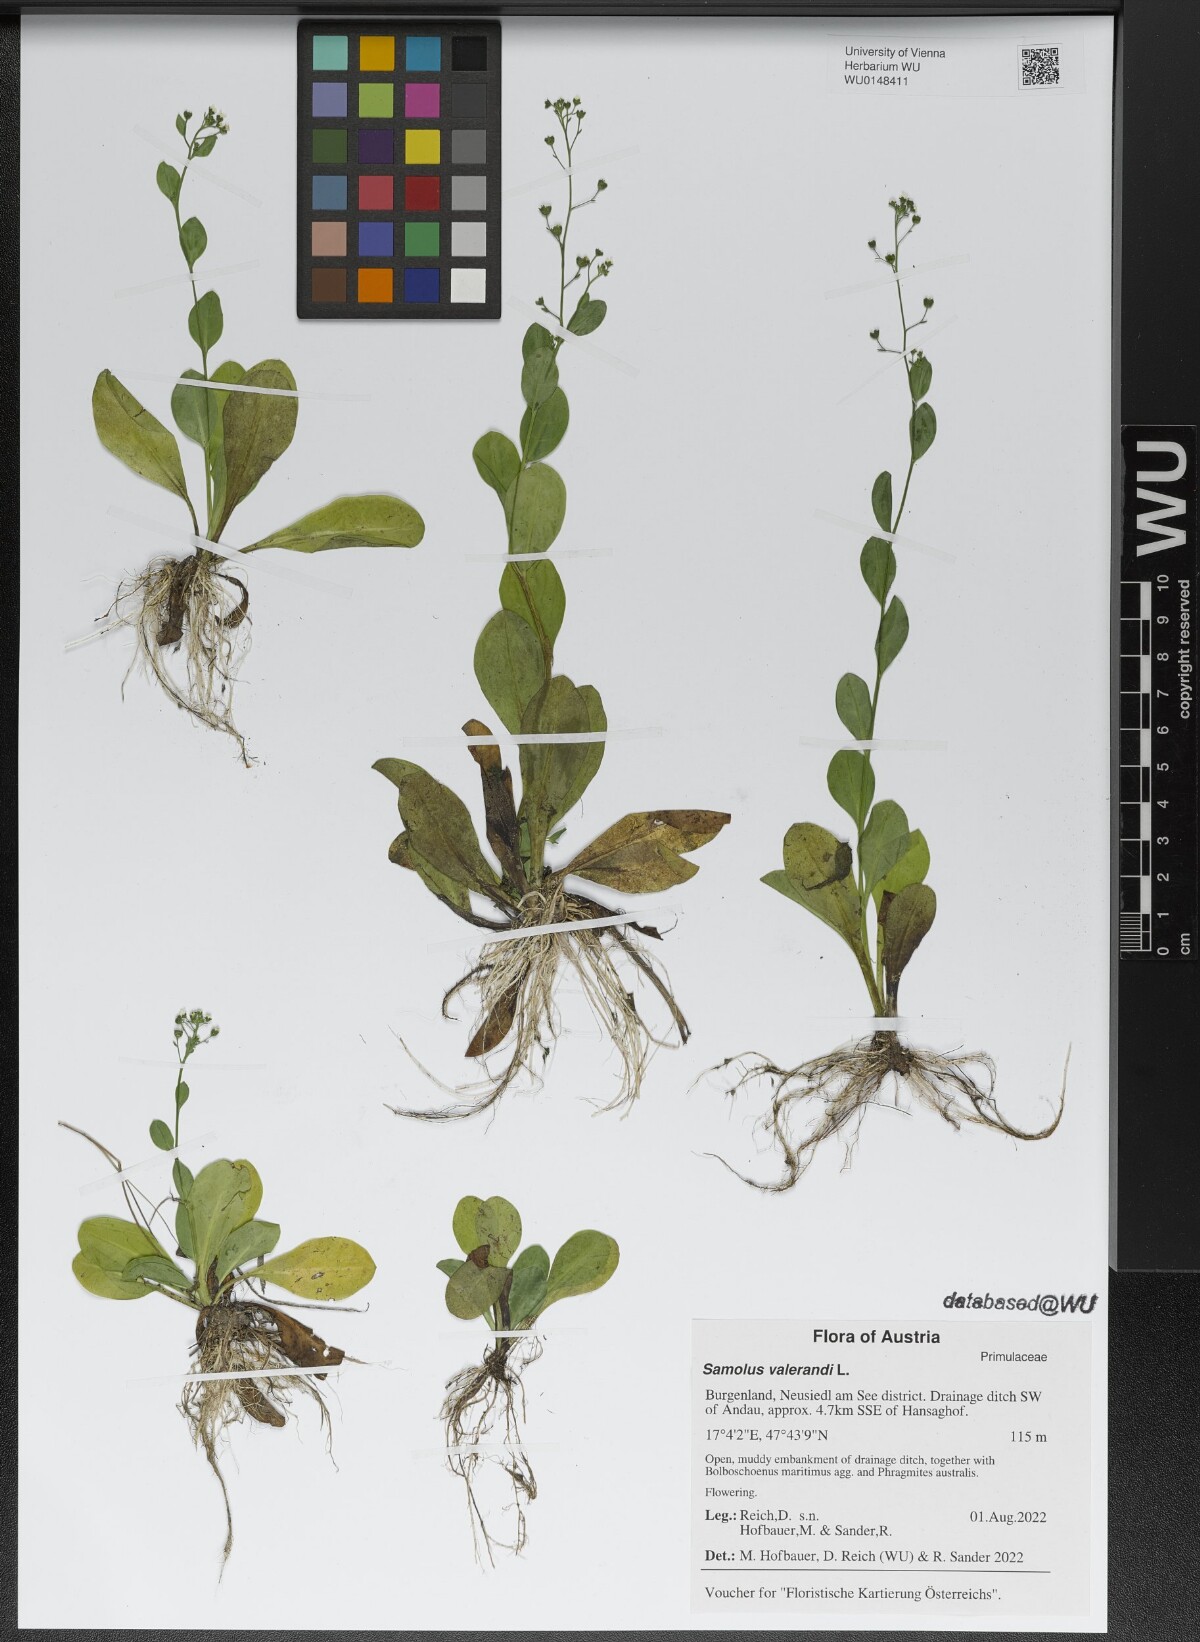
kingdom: Plantae
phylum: Tracheophyta
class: Magnoliopsida
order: Ericales
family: Primulaceae
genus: Samolus
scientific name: Samolus valerandi
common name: Brookweed
